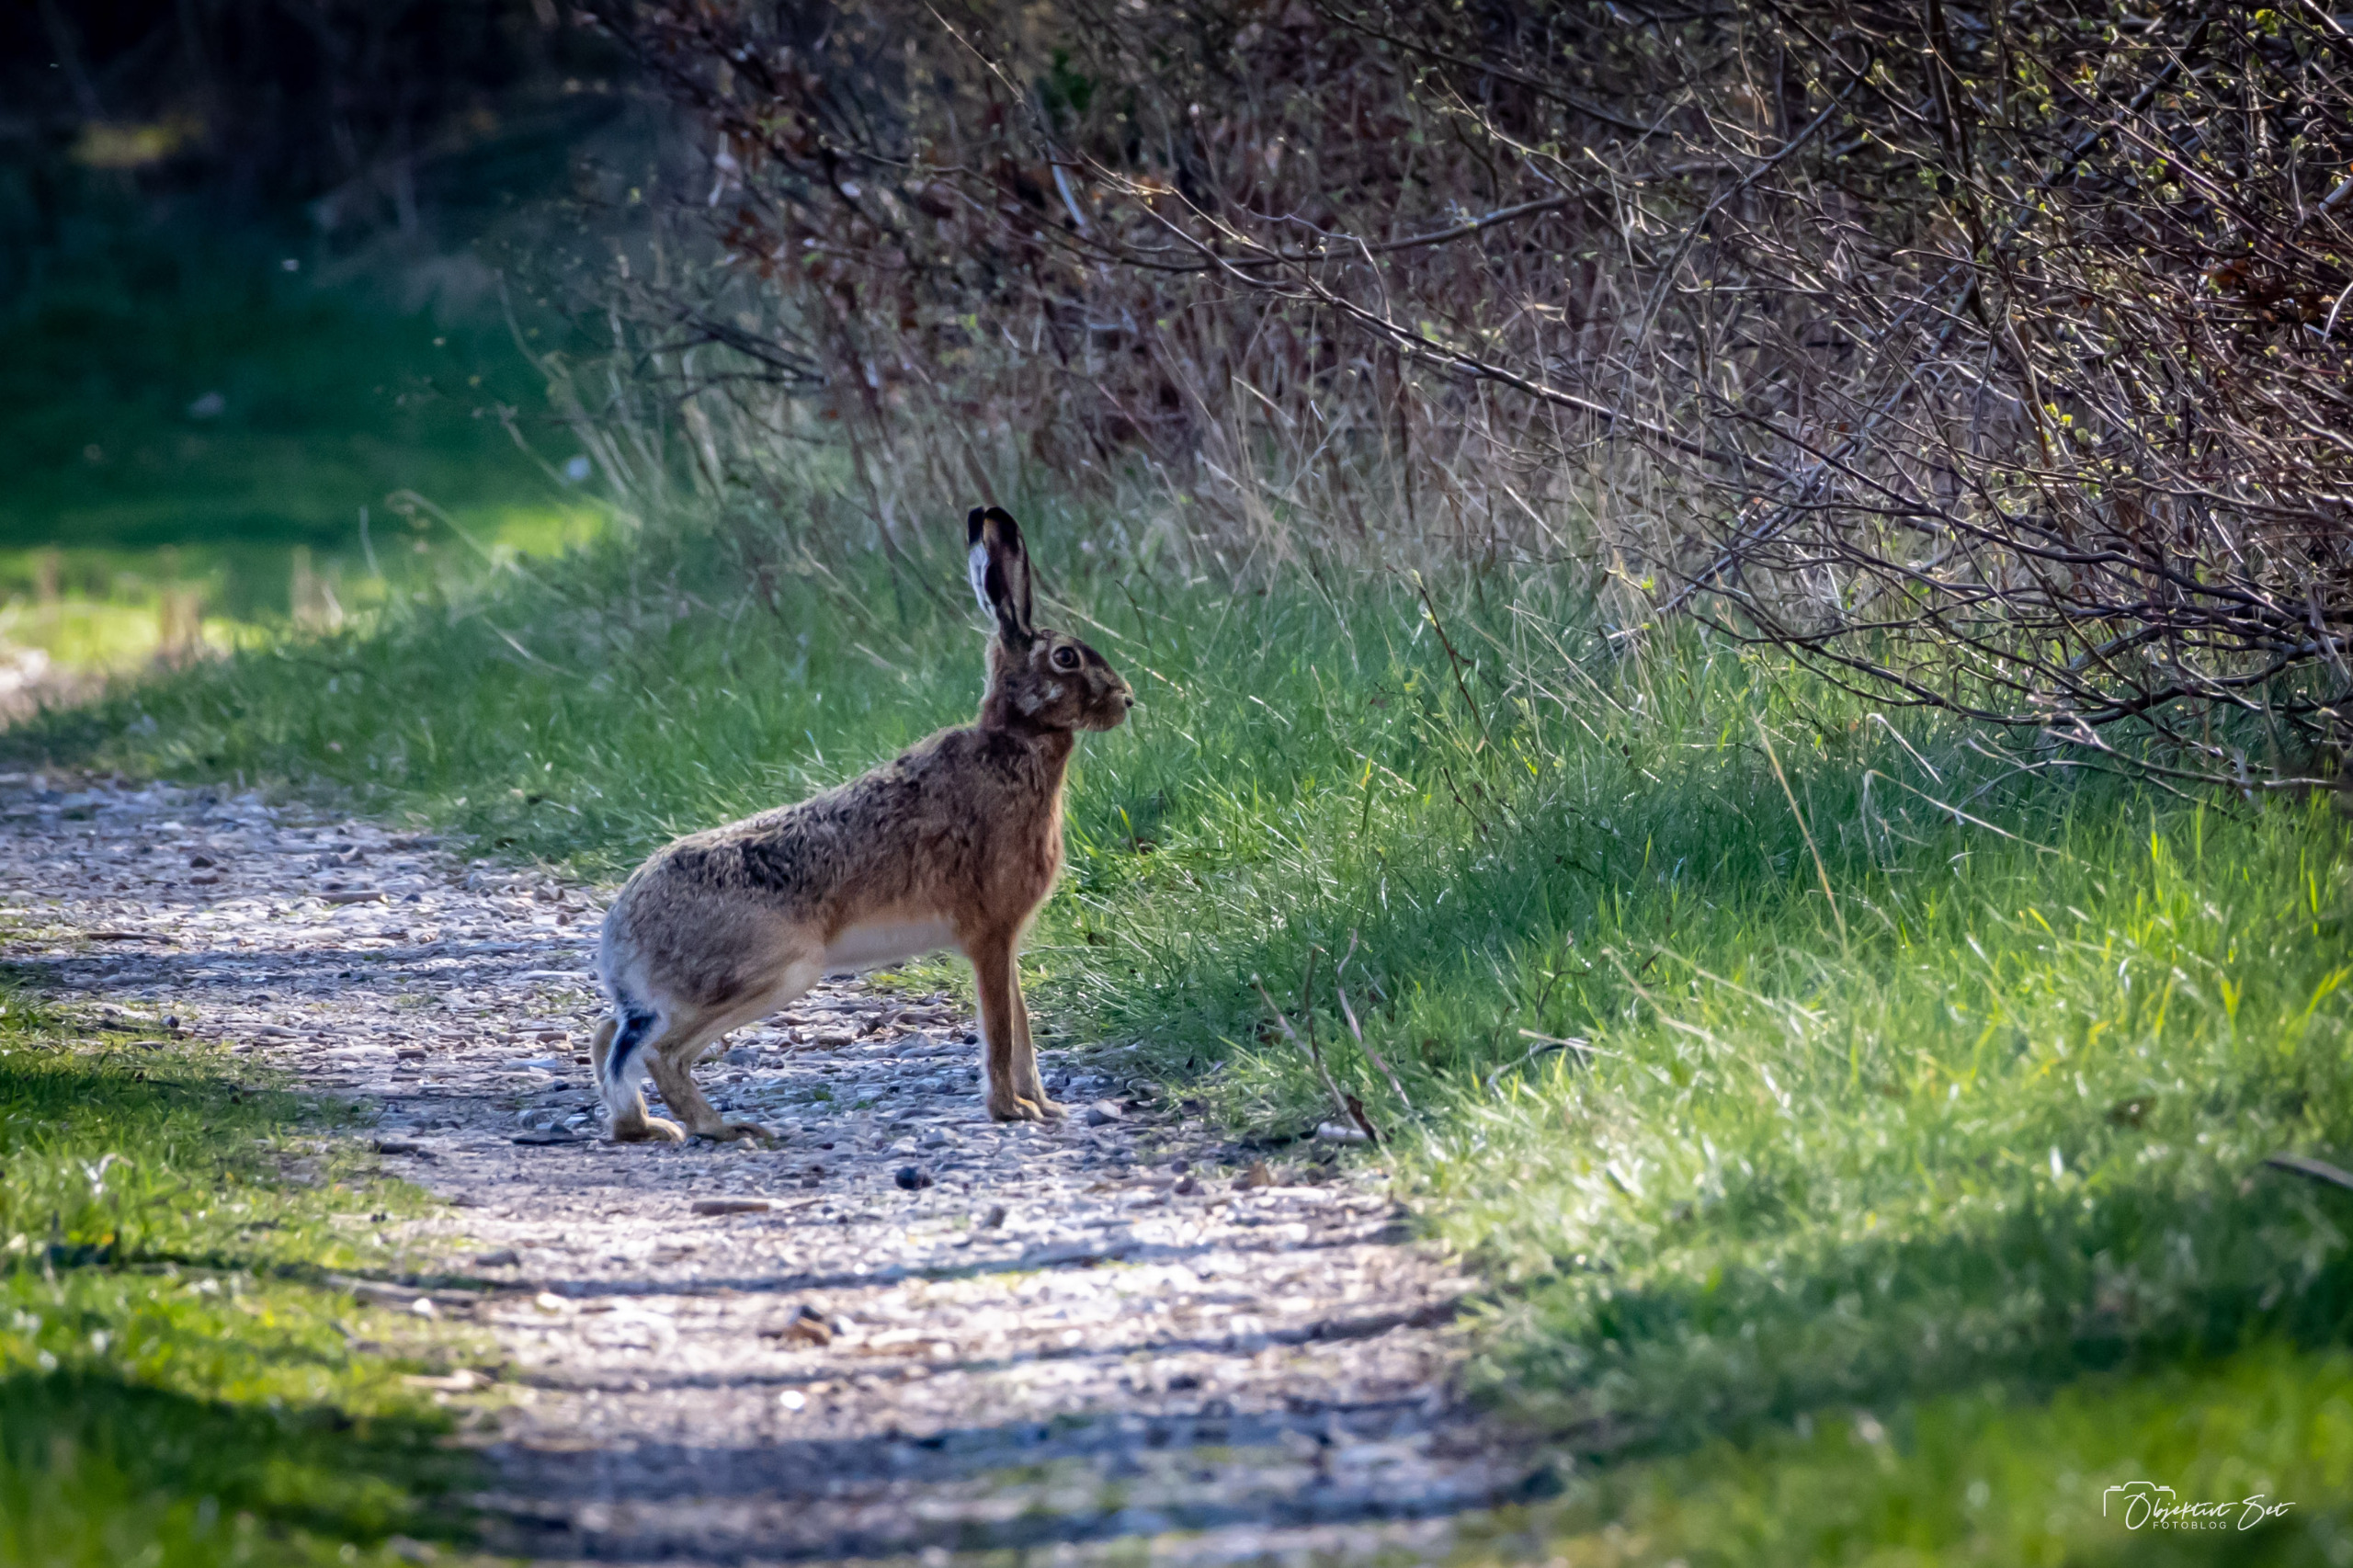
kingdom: Animalia
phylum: Chordata
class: Mammalia
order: Lagomorpha
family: Leporidae
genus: Lepus
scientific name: Lepus europaeus
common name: Hare
